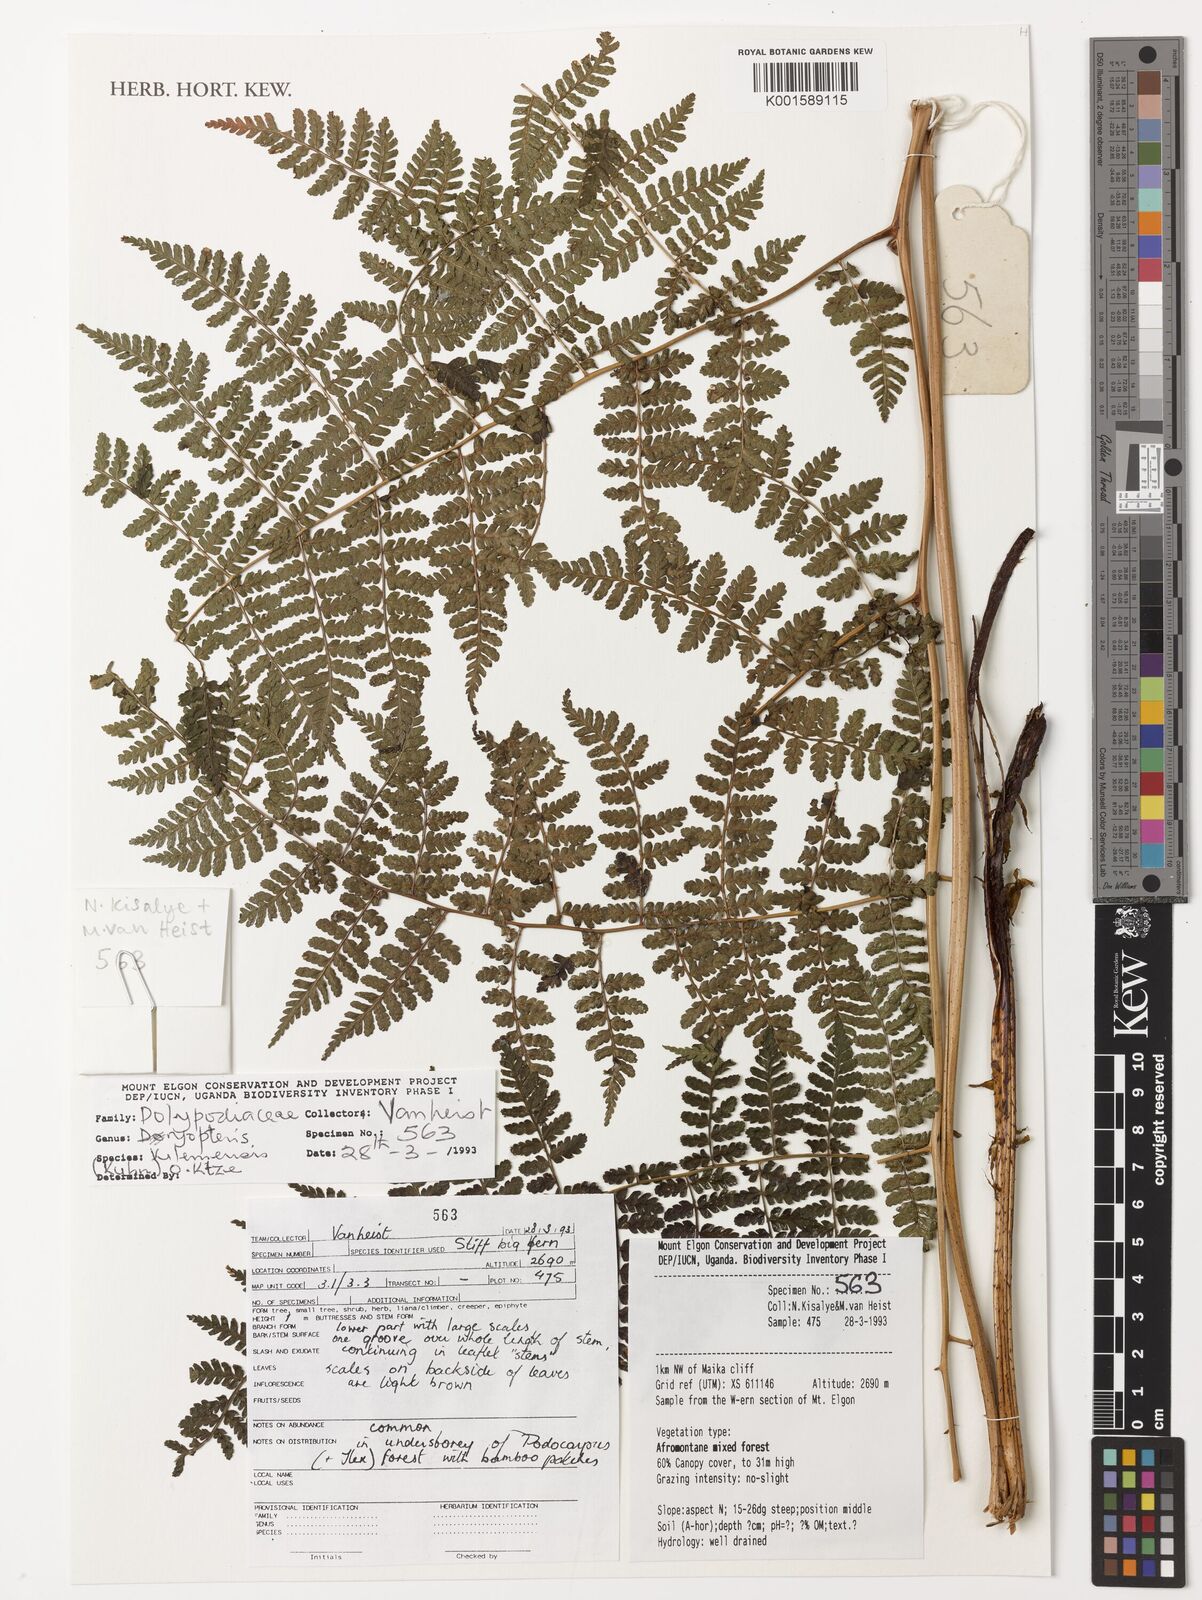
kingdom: Plantae
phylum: Tracheophyta
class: Polypodiopsida
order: Polypodiales
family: Dryopteridaceae
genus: Dryopteris
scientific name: Dryopteris kilemensis
